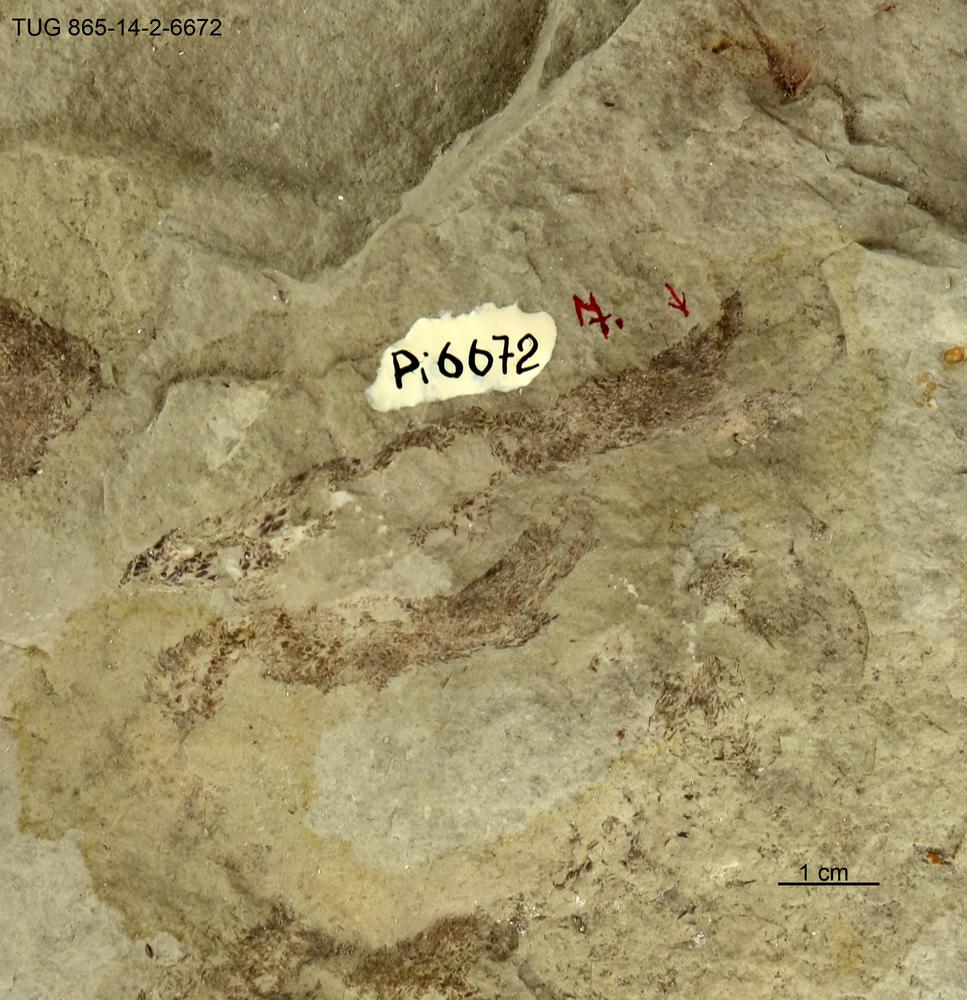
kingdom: Animalia
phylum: Chordata
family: Phlebolepididae
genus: Phlebolepis
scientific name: Phlebolepis elegans
